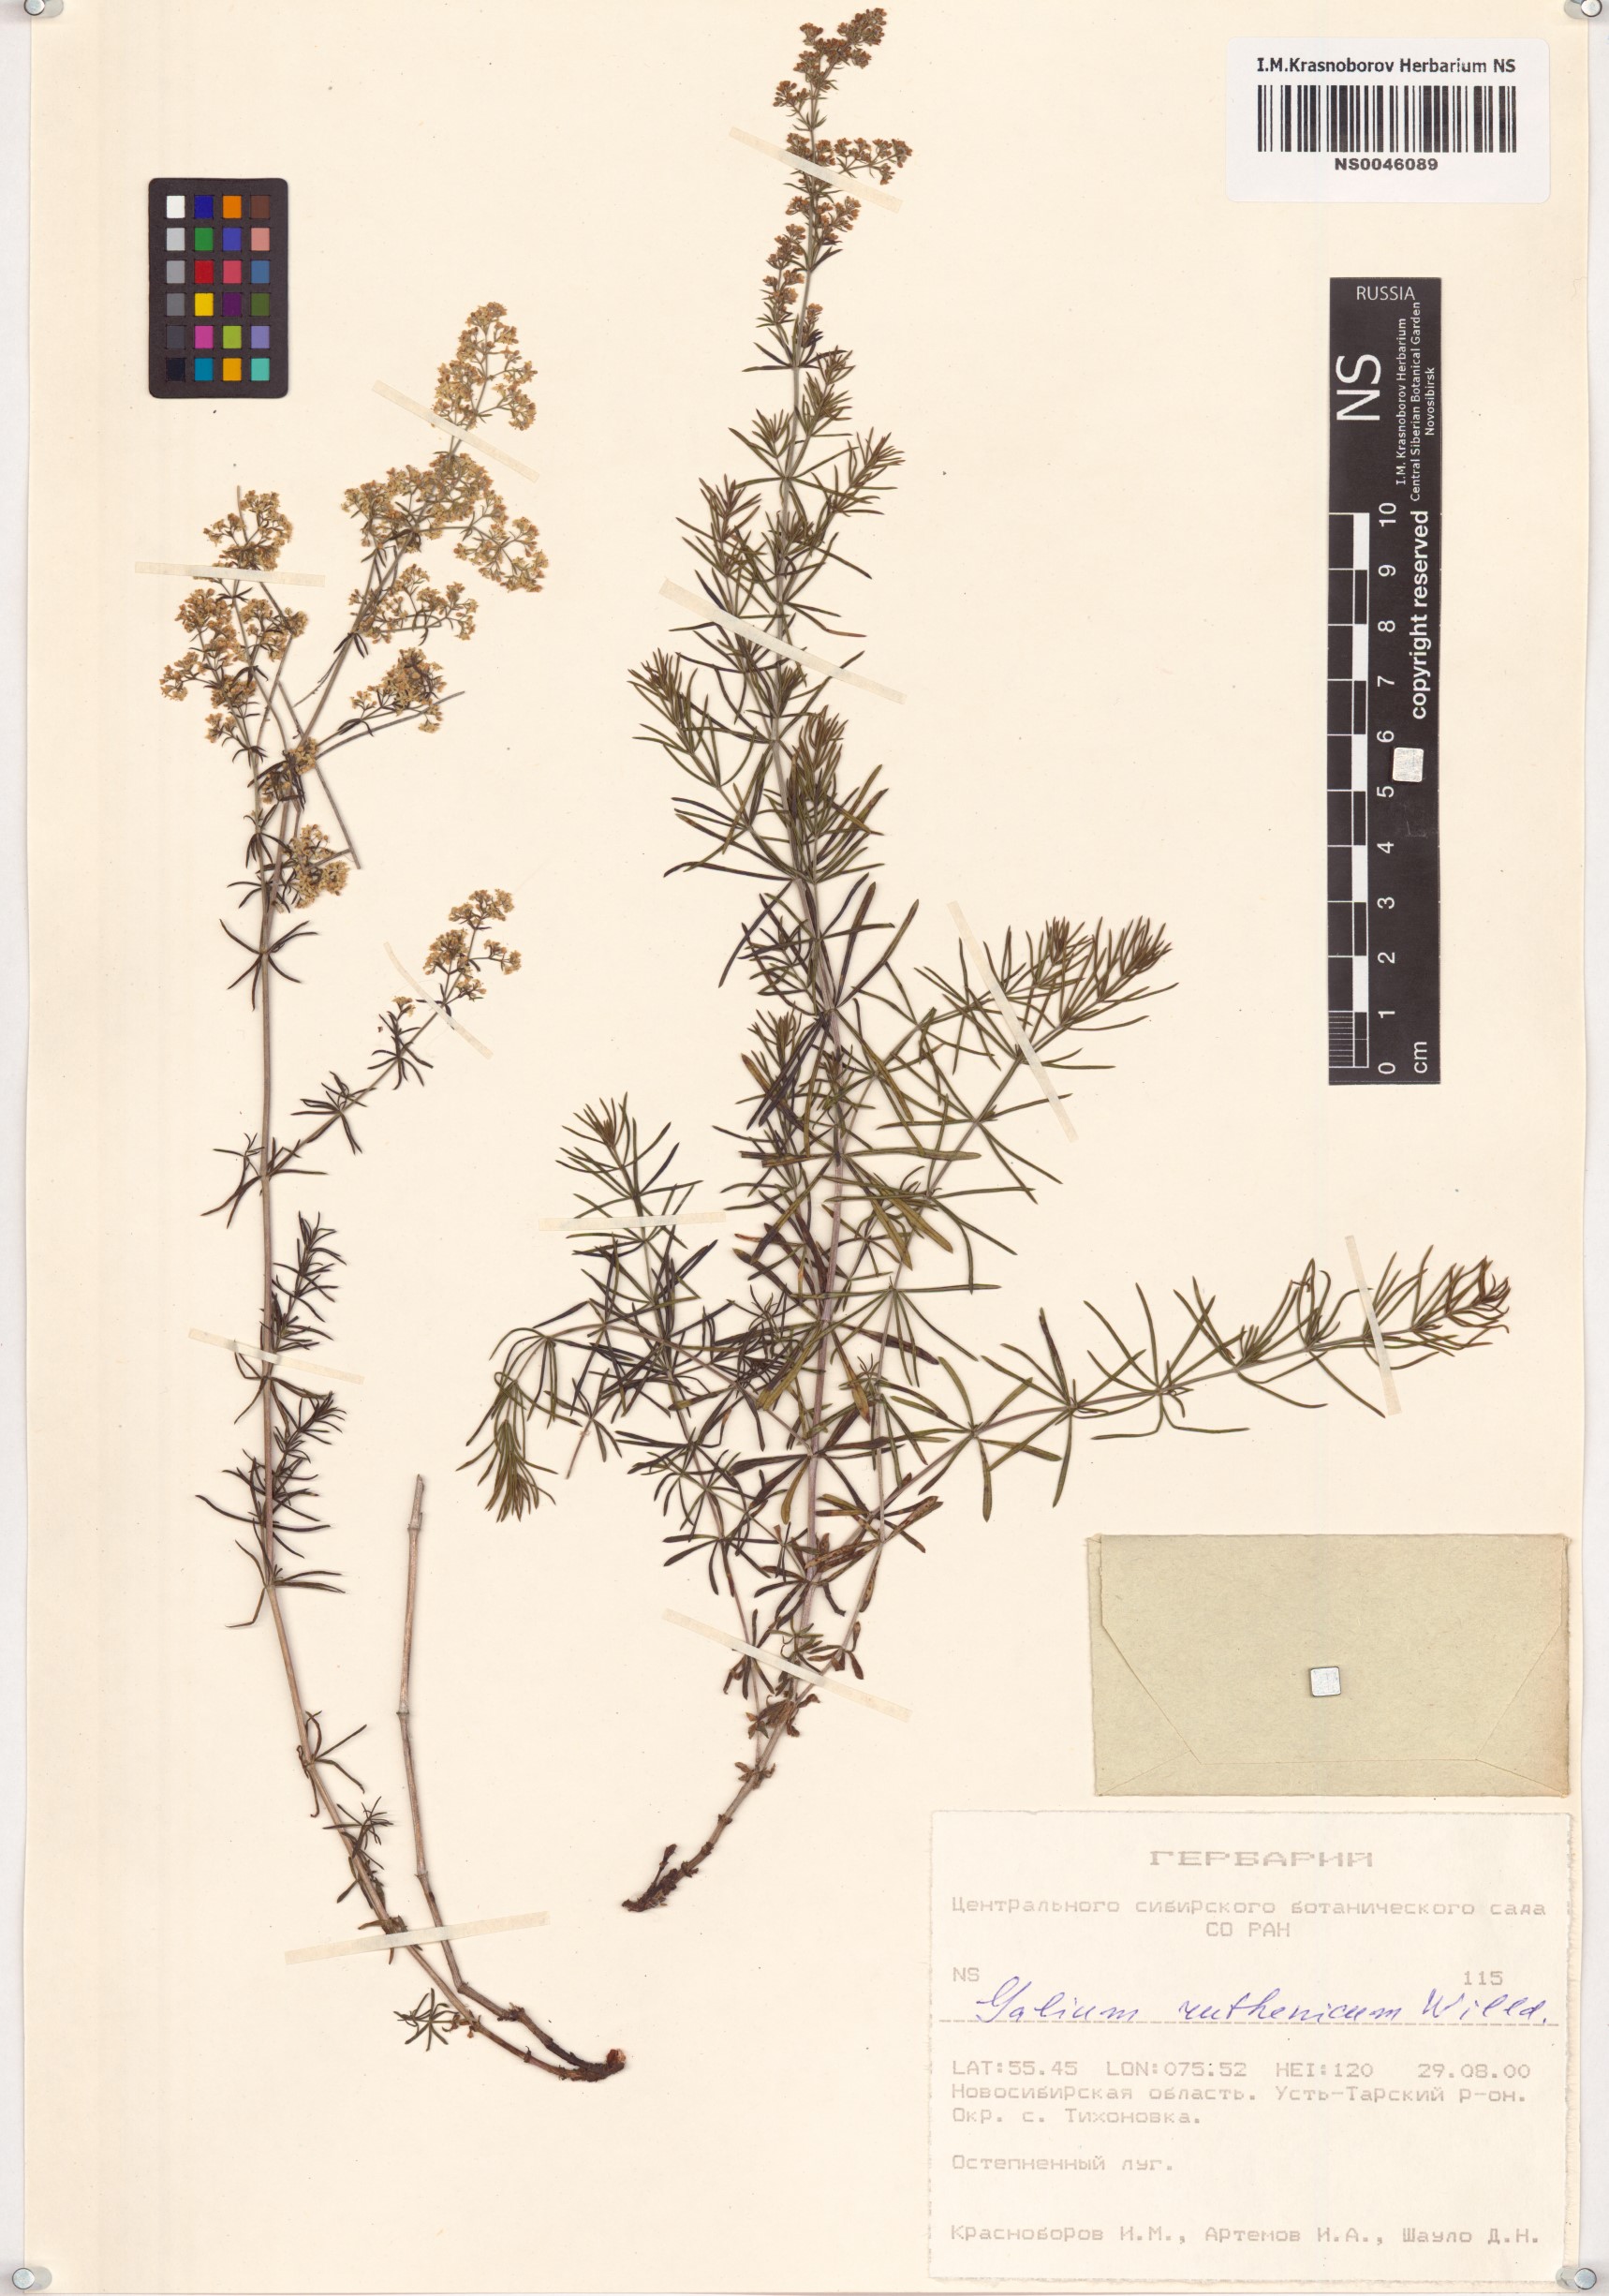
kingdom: Plantae
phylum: Tracheophyta
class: Magnoliopsida
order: Gentianales
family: Rubiaceae
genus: Galium
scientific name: Galium verum
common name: Lady's bedstraw
